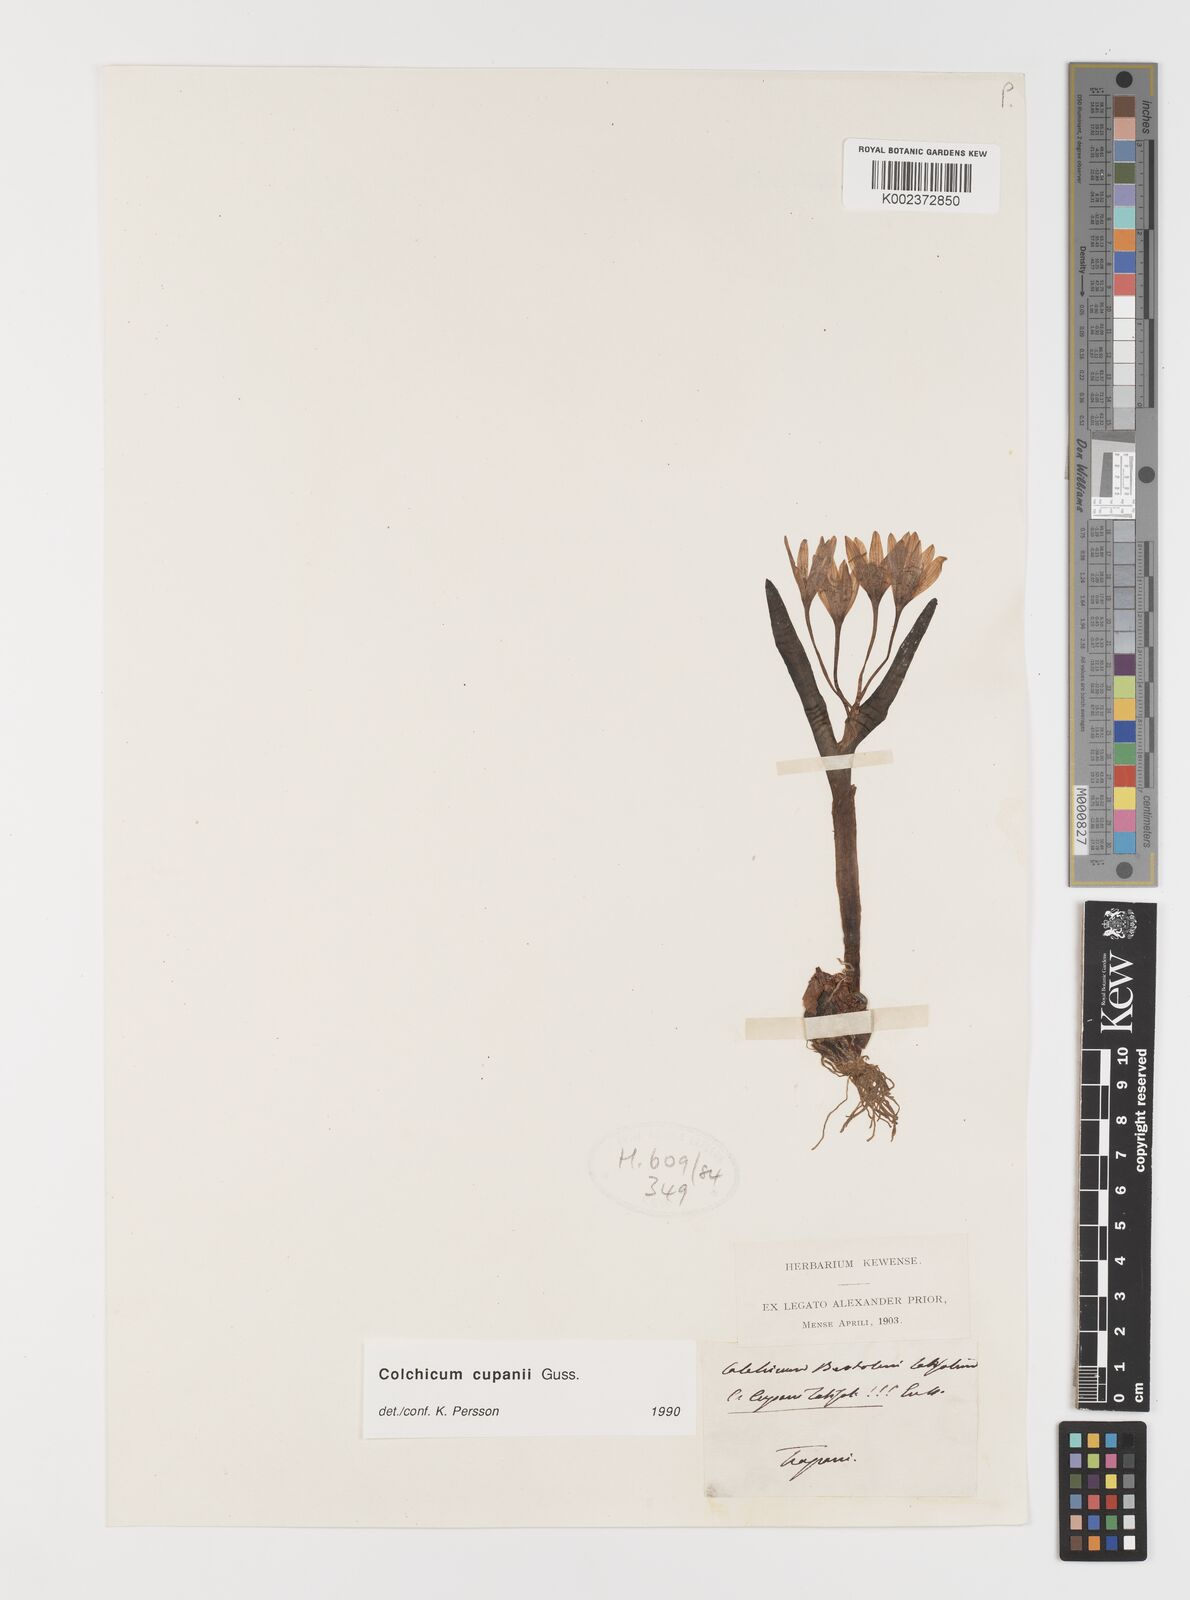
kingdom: Plantae
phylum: Tracheophyta
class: Liliopsida
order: Liliales
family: Colchicaceae
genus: Colchicum
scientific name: Colchicum cupanii
